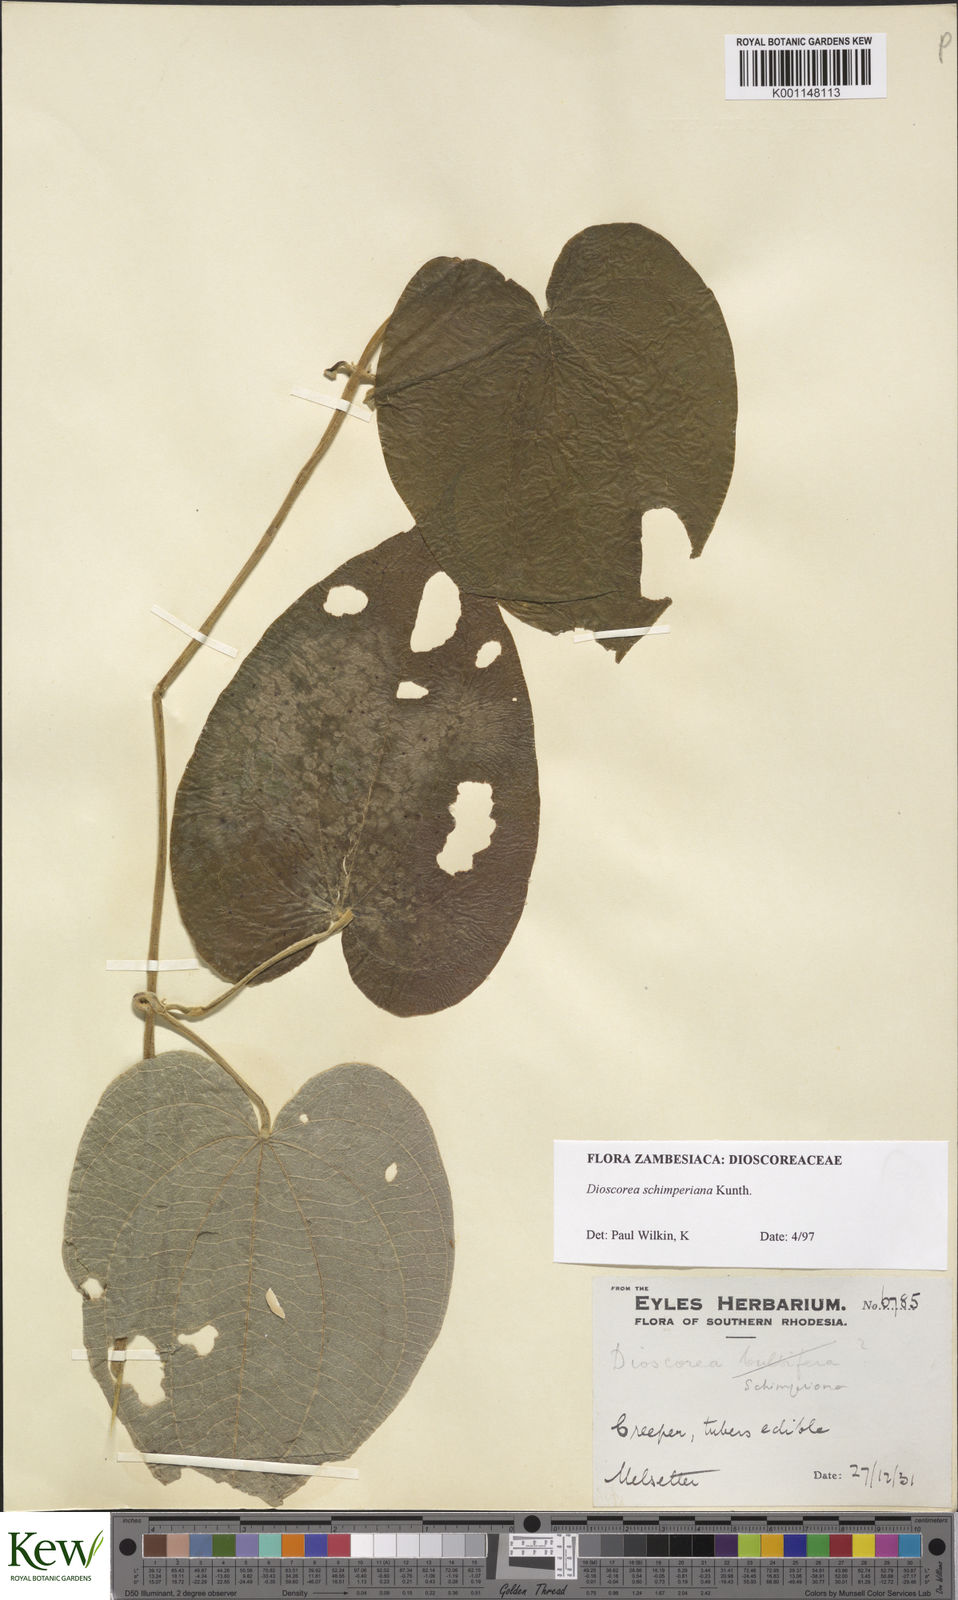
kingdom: Plantae
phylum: Tracheophyta
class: Liliopsida
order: Dioscoreales
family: Dioscoreaceae
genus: Dioscorea
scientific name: Dioscorea schimperiana
